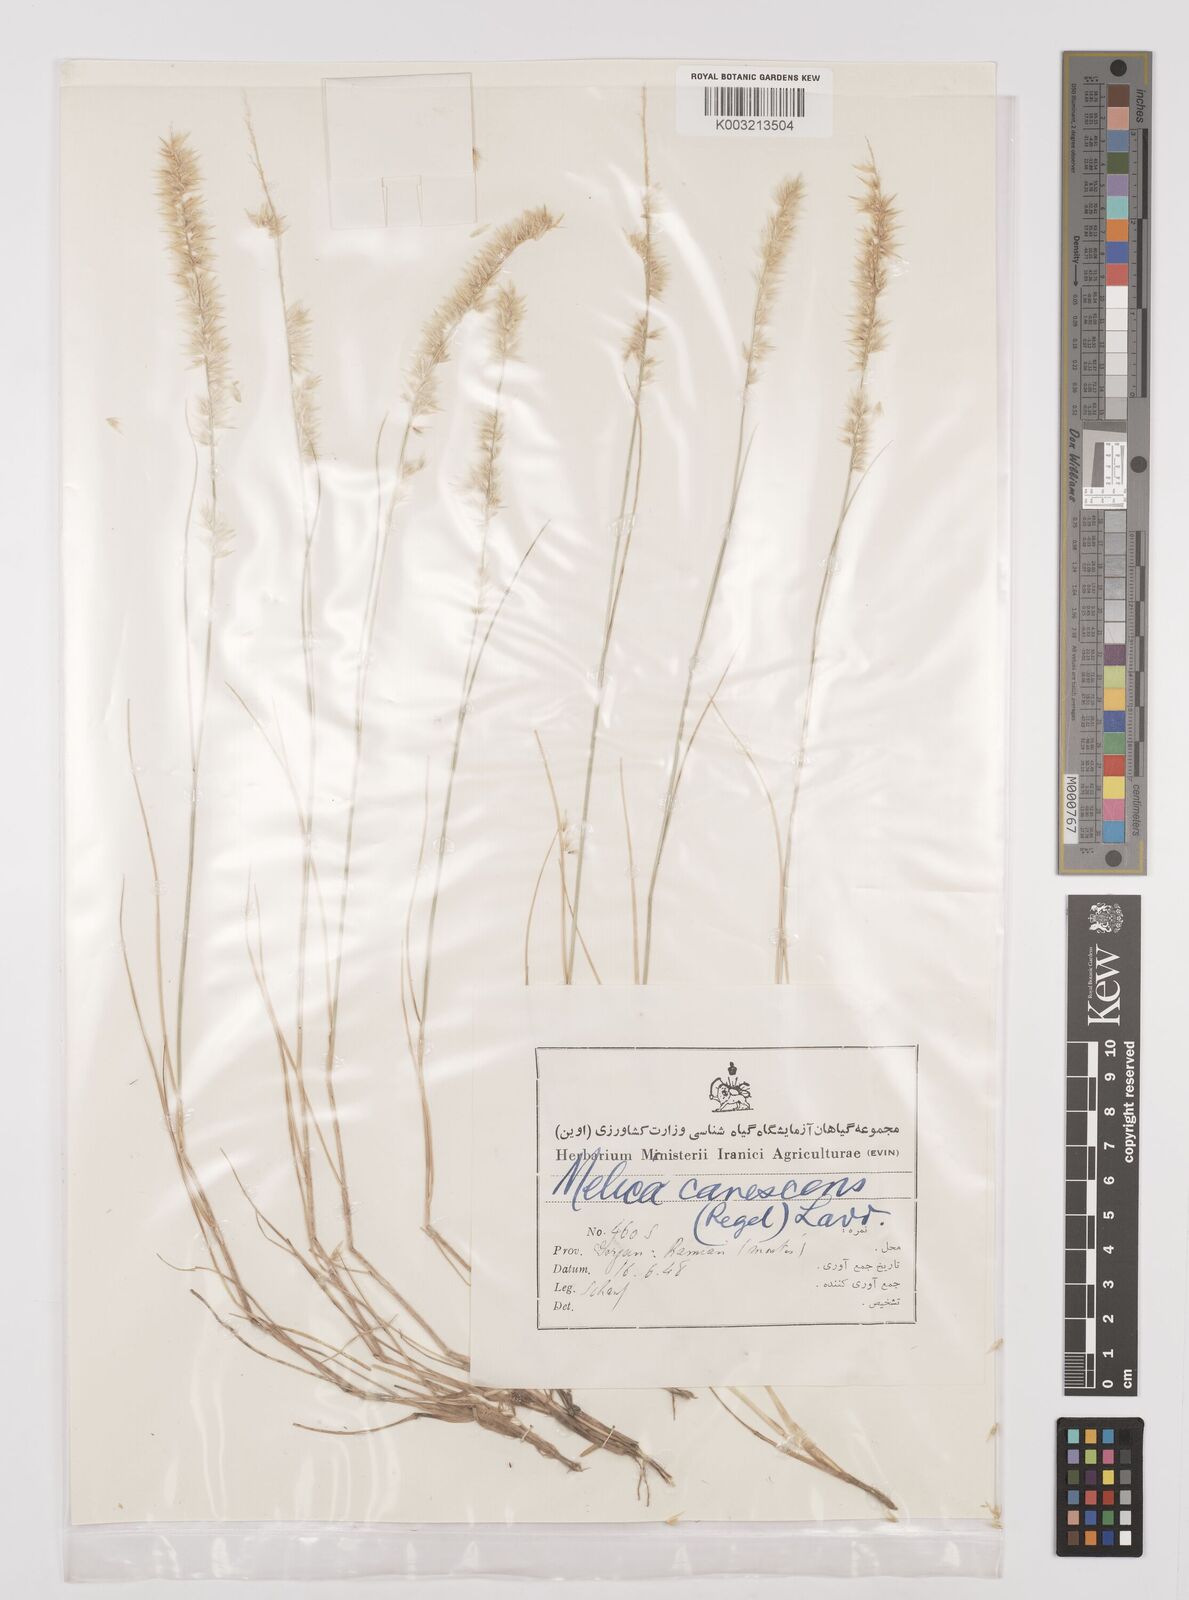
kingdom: Plantae
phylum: Tracheophyta
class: Liliopsida
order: Poales
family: Poaceae
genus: Melica
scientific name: Melica persica
